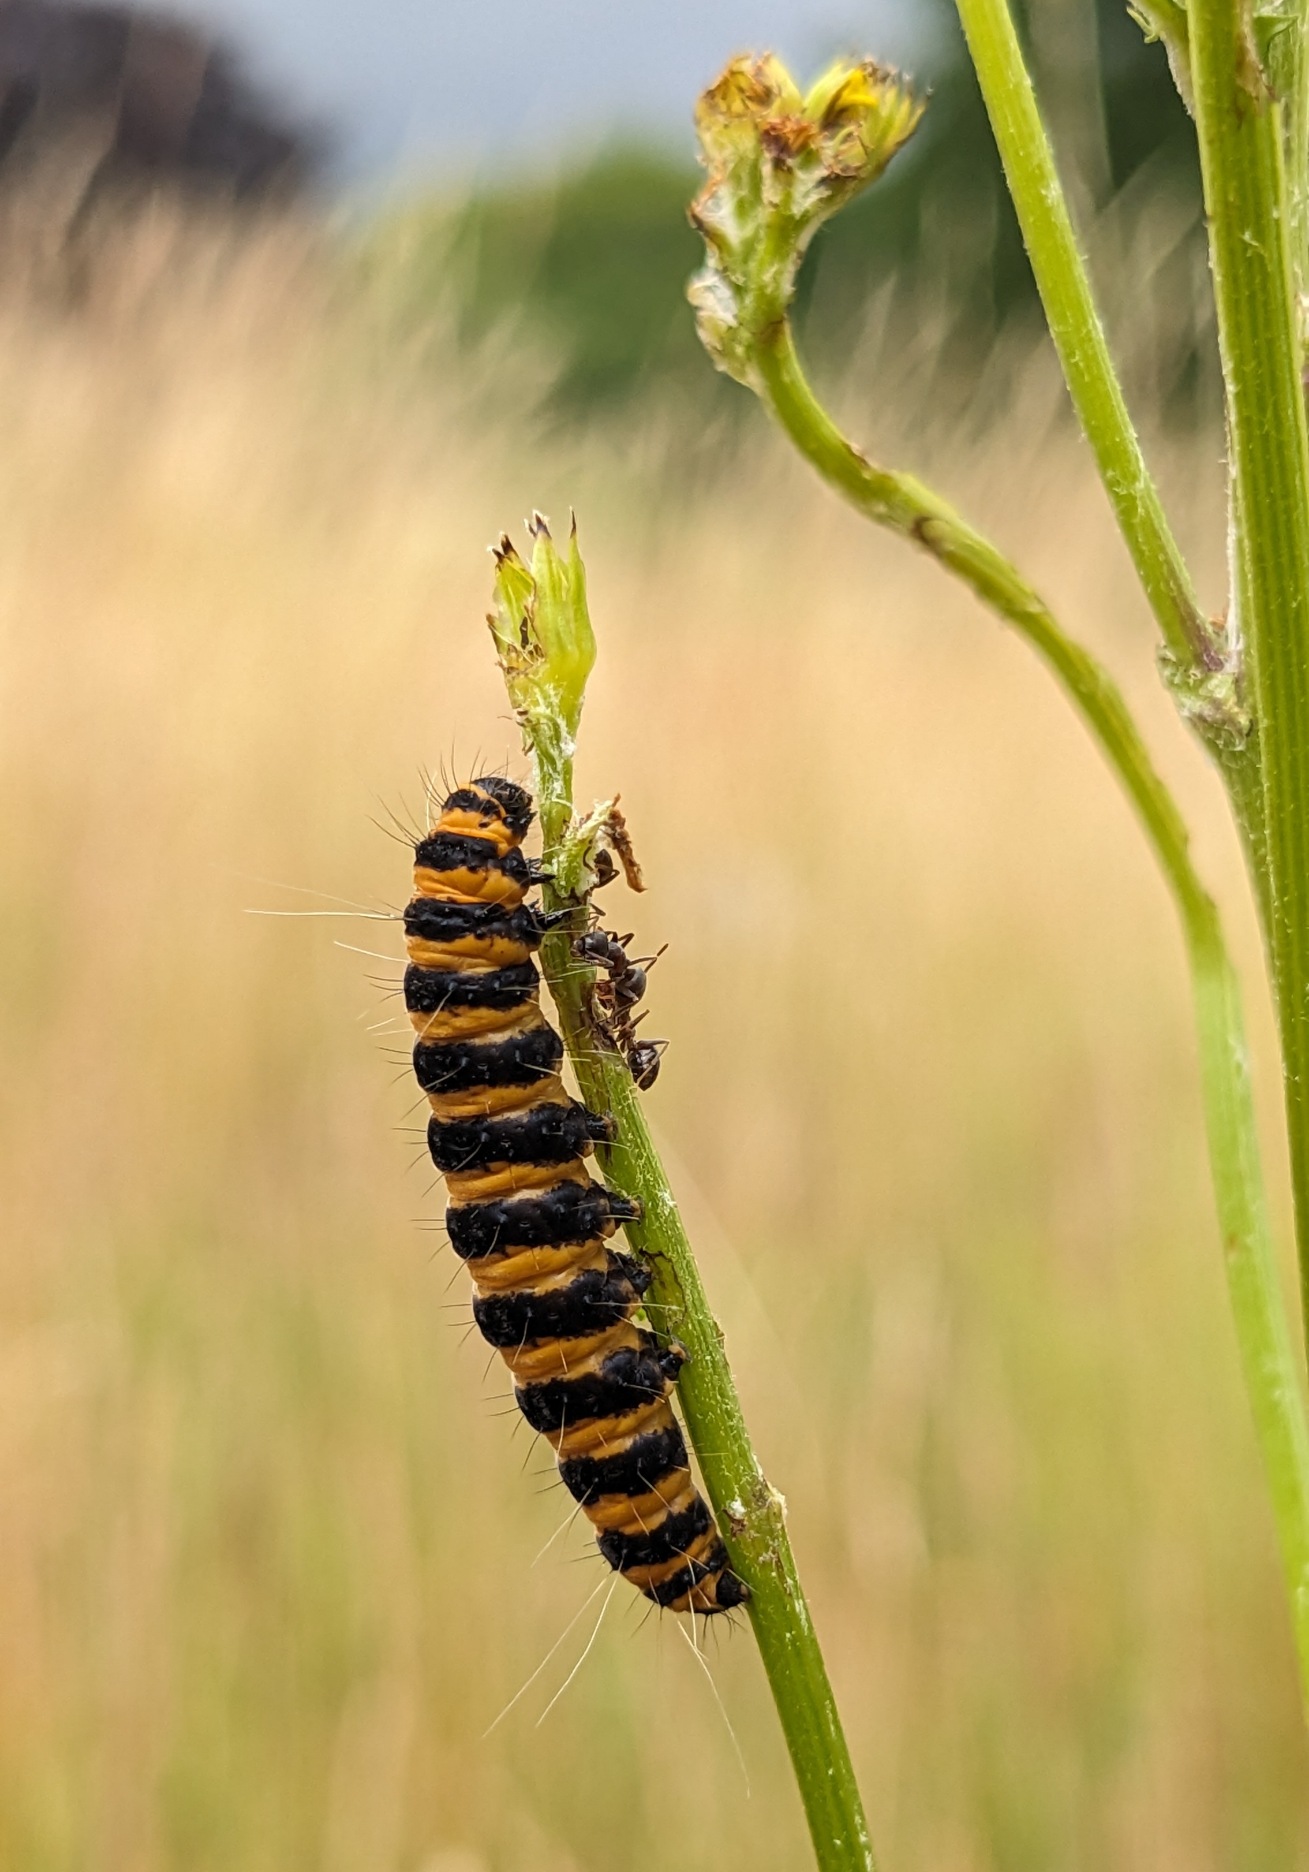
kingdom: Animalia
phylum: Arthropoda
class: Insecta
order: Lepidoptera
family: Erebidae
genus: Tyria
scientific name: Tyria jacobaeae
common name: Blodplet
